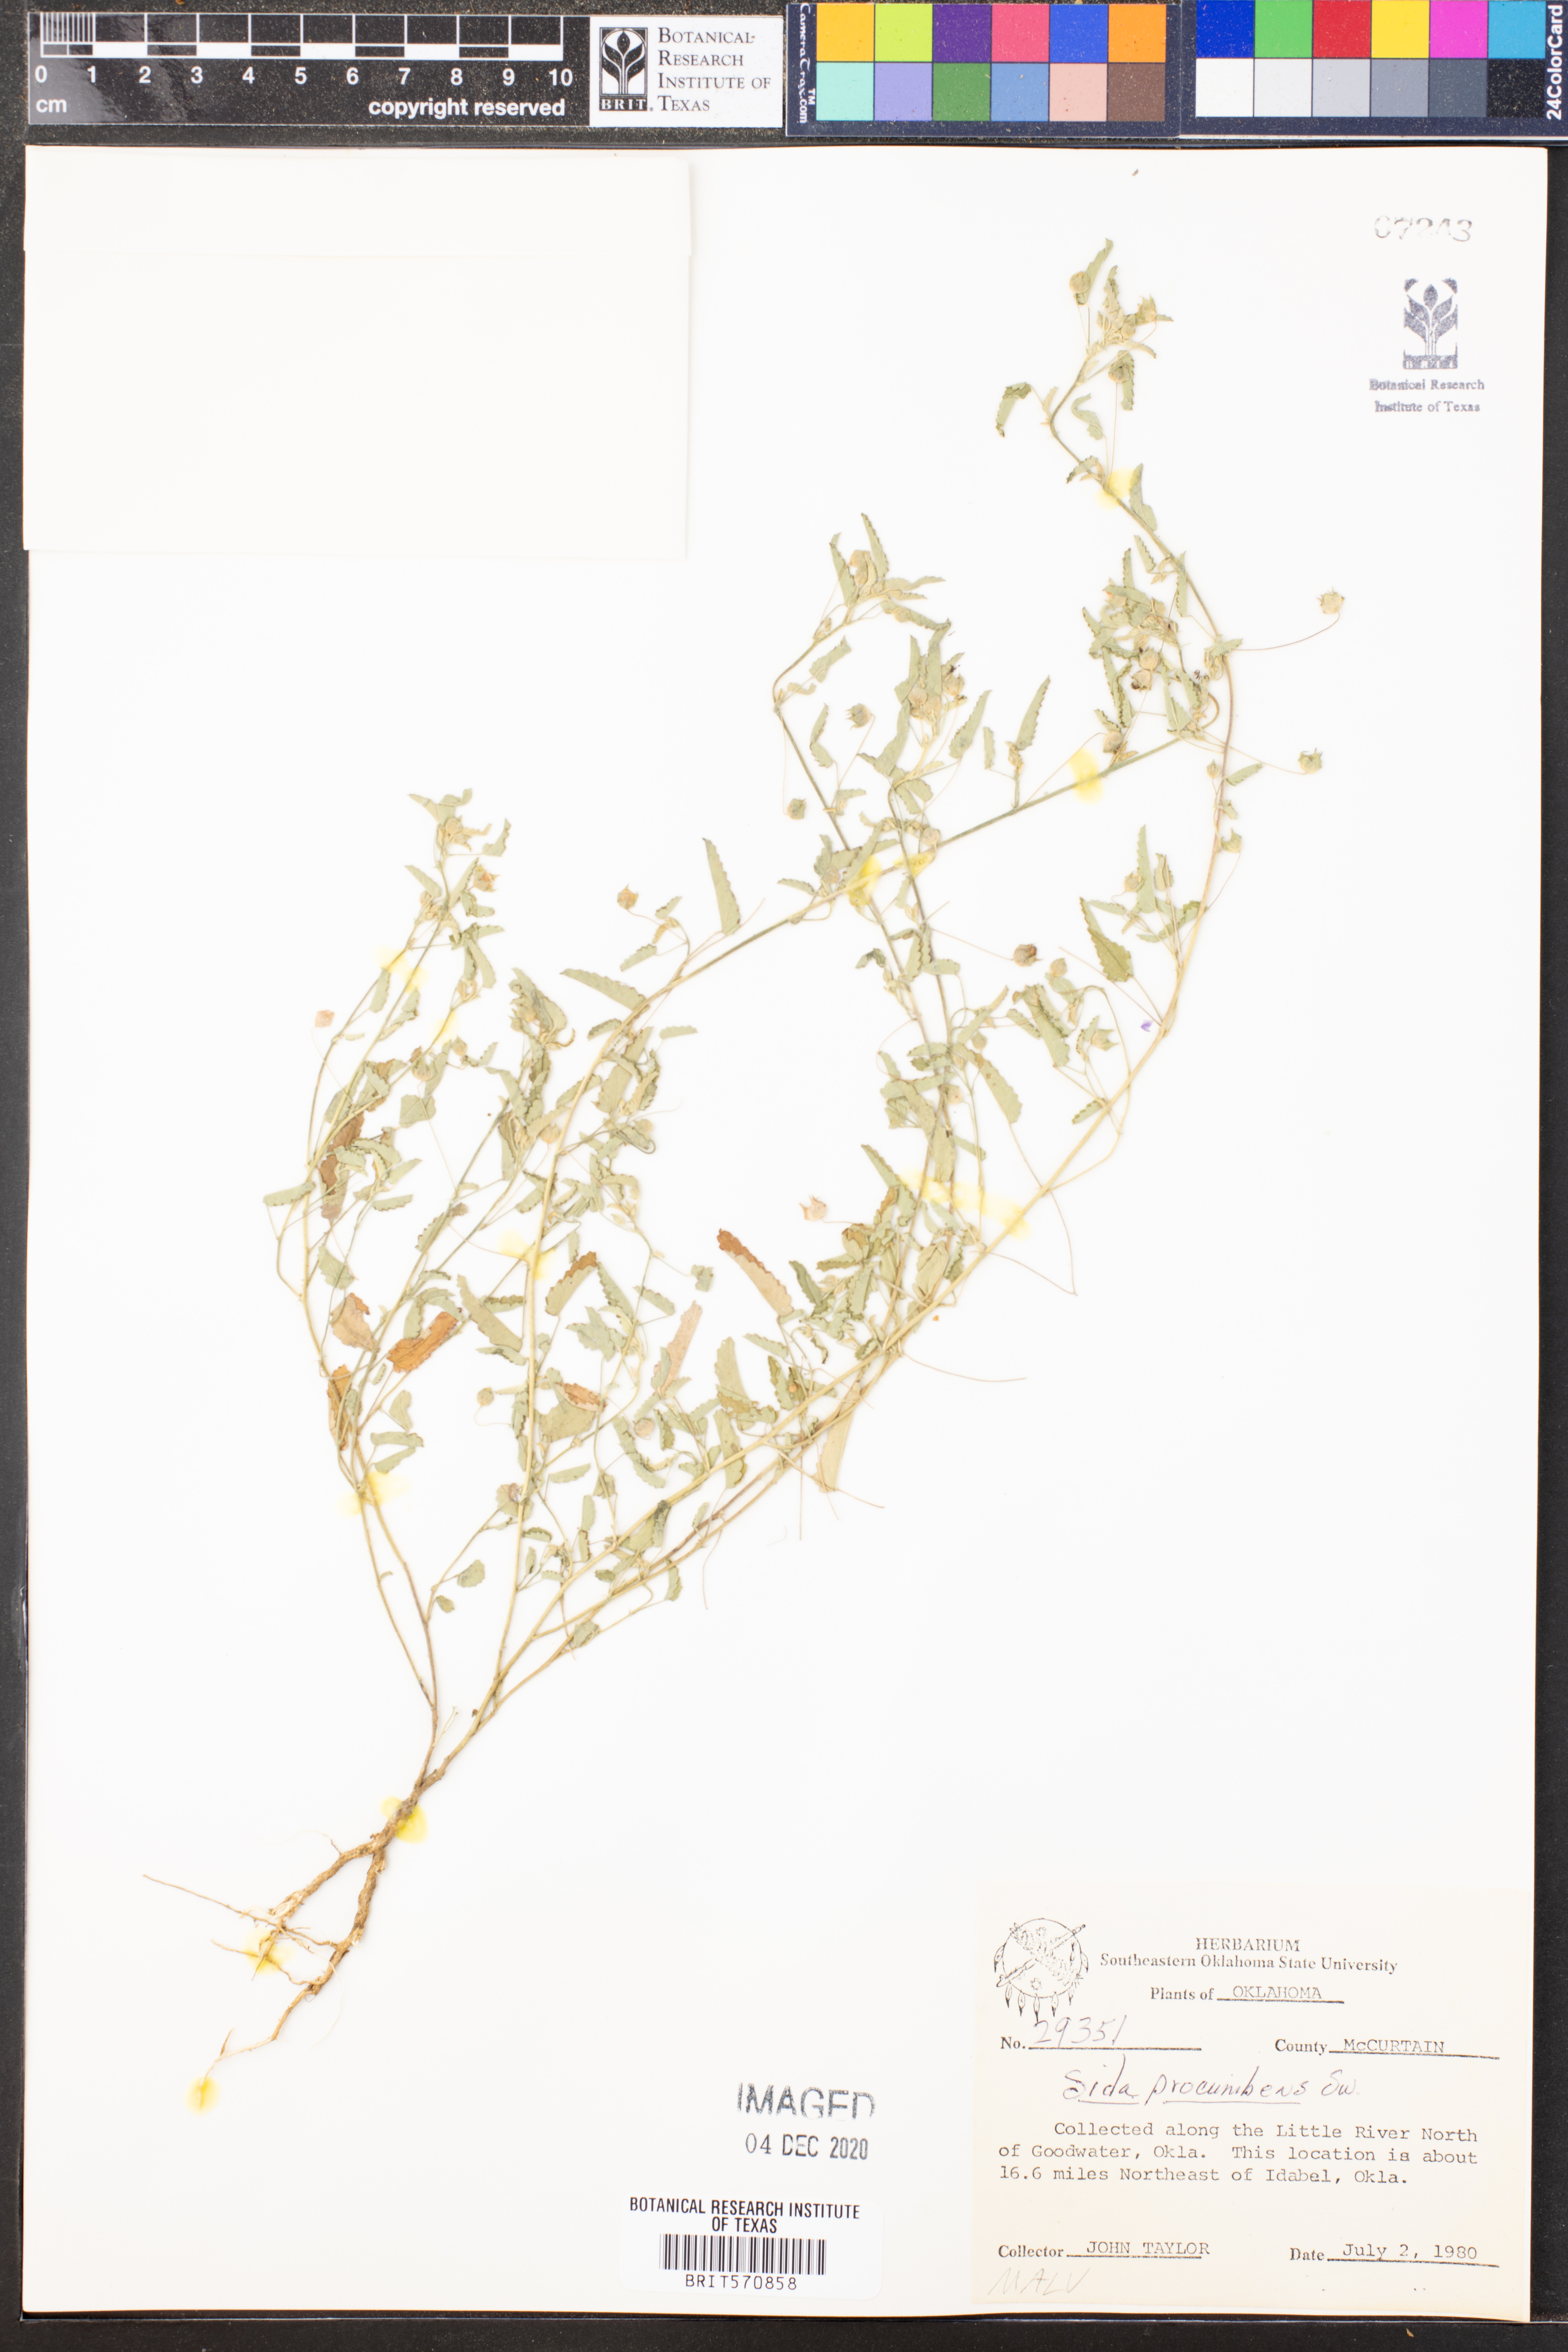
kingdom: Plantae
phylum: Tracheophyta
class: Magnoliopsida
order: Malvales
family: Malvaceae
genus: Sida
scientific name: Sida abutilifolia
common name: Spreading fanpetals
